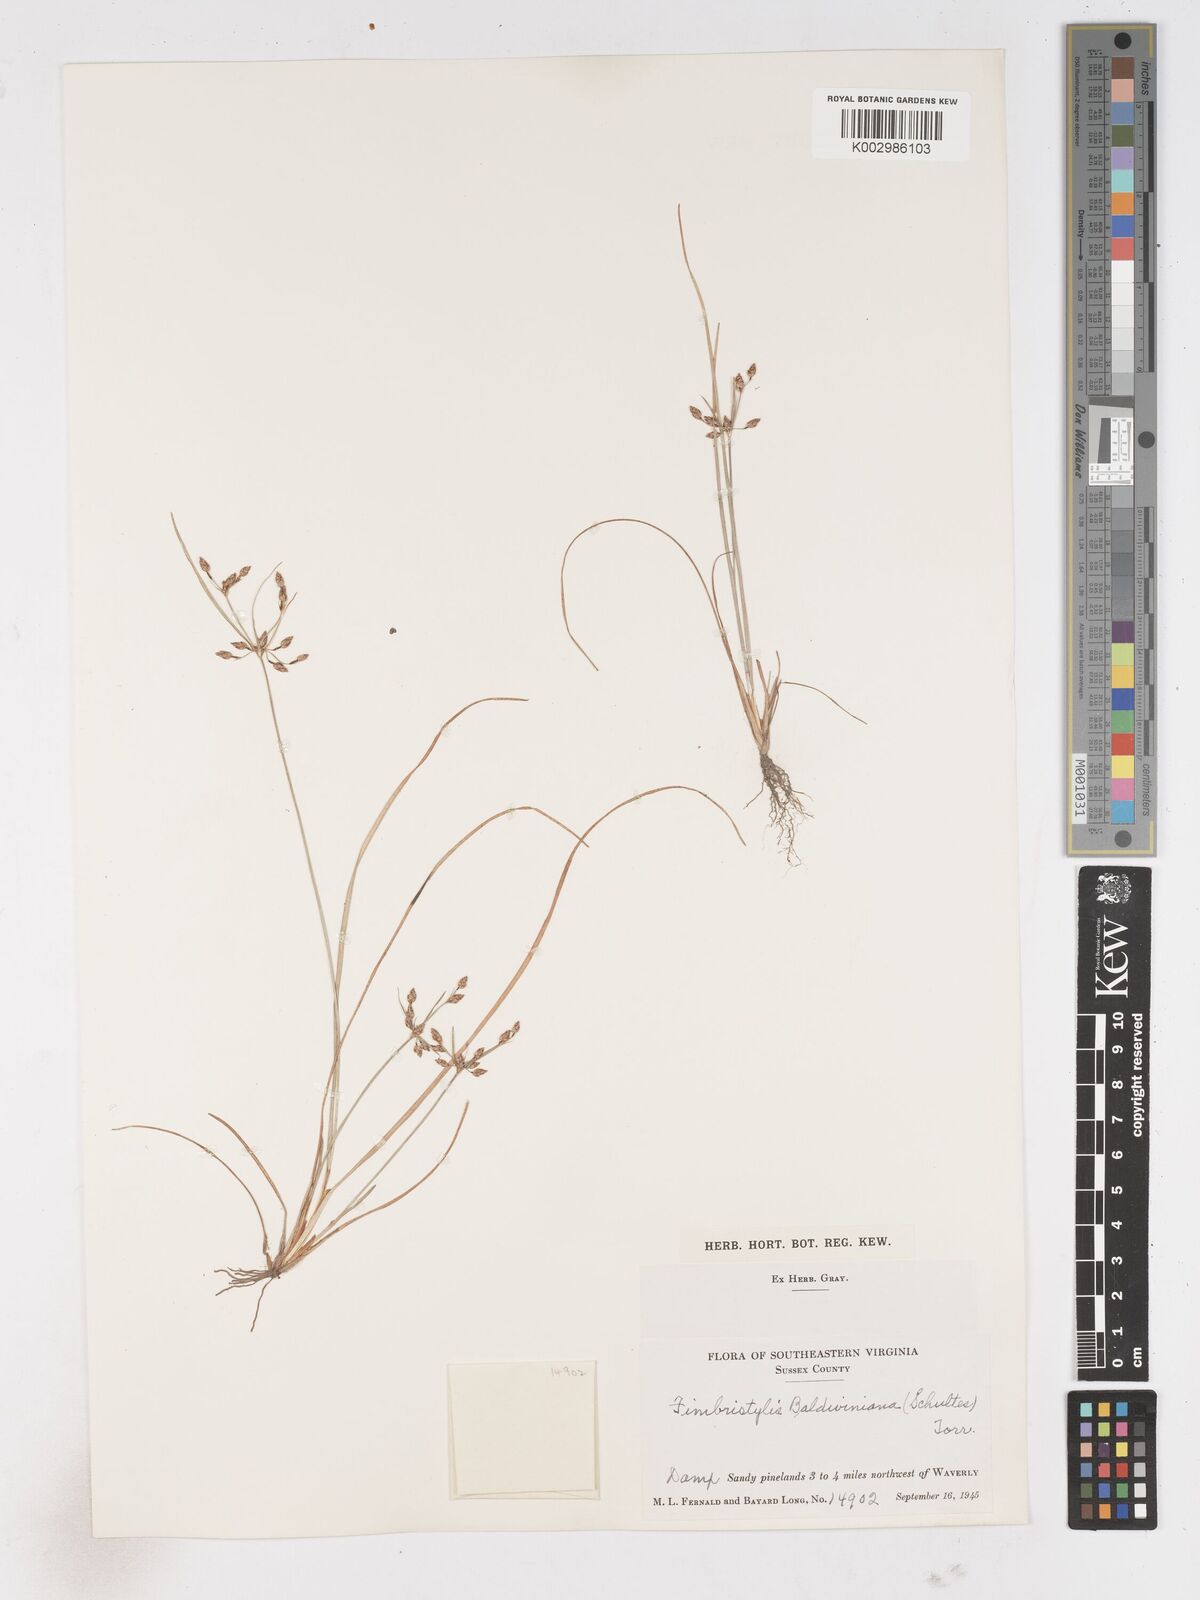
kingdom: Plantae
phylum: Tracheophyta
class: Liliopsida
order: Poales
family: Cyperaceae
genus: Fimbristylis
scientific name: Fimbristylis dichotoma
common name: Forked fimbry
